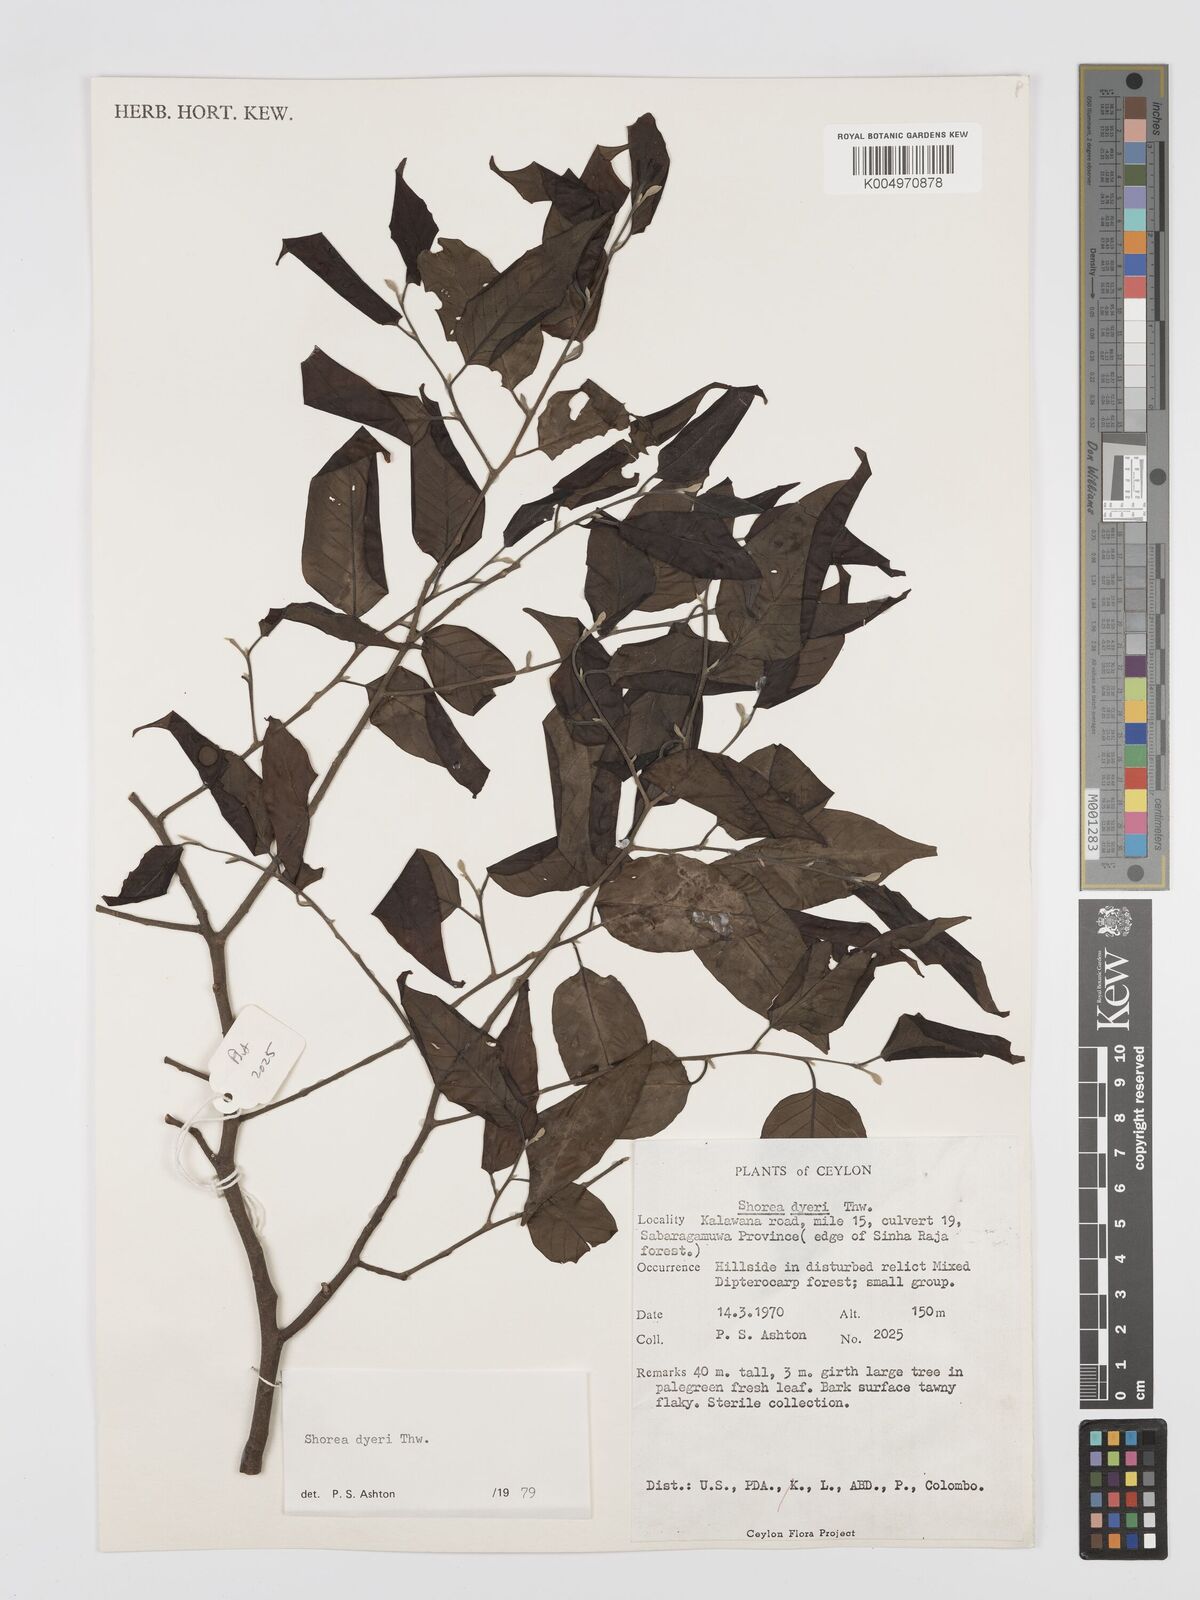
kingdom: Plantae
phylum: Tracheophyta
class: Magnoliopsida
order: Malvales
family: Dipterocarpaceae
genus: Shorea
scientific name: Shorea dyeri
